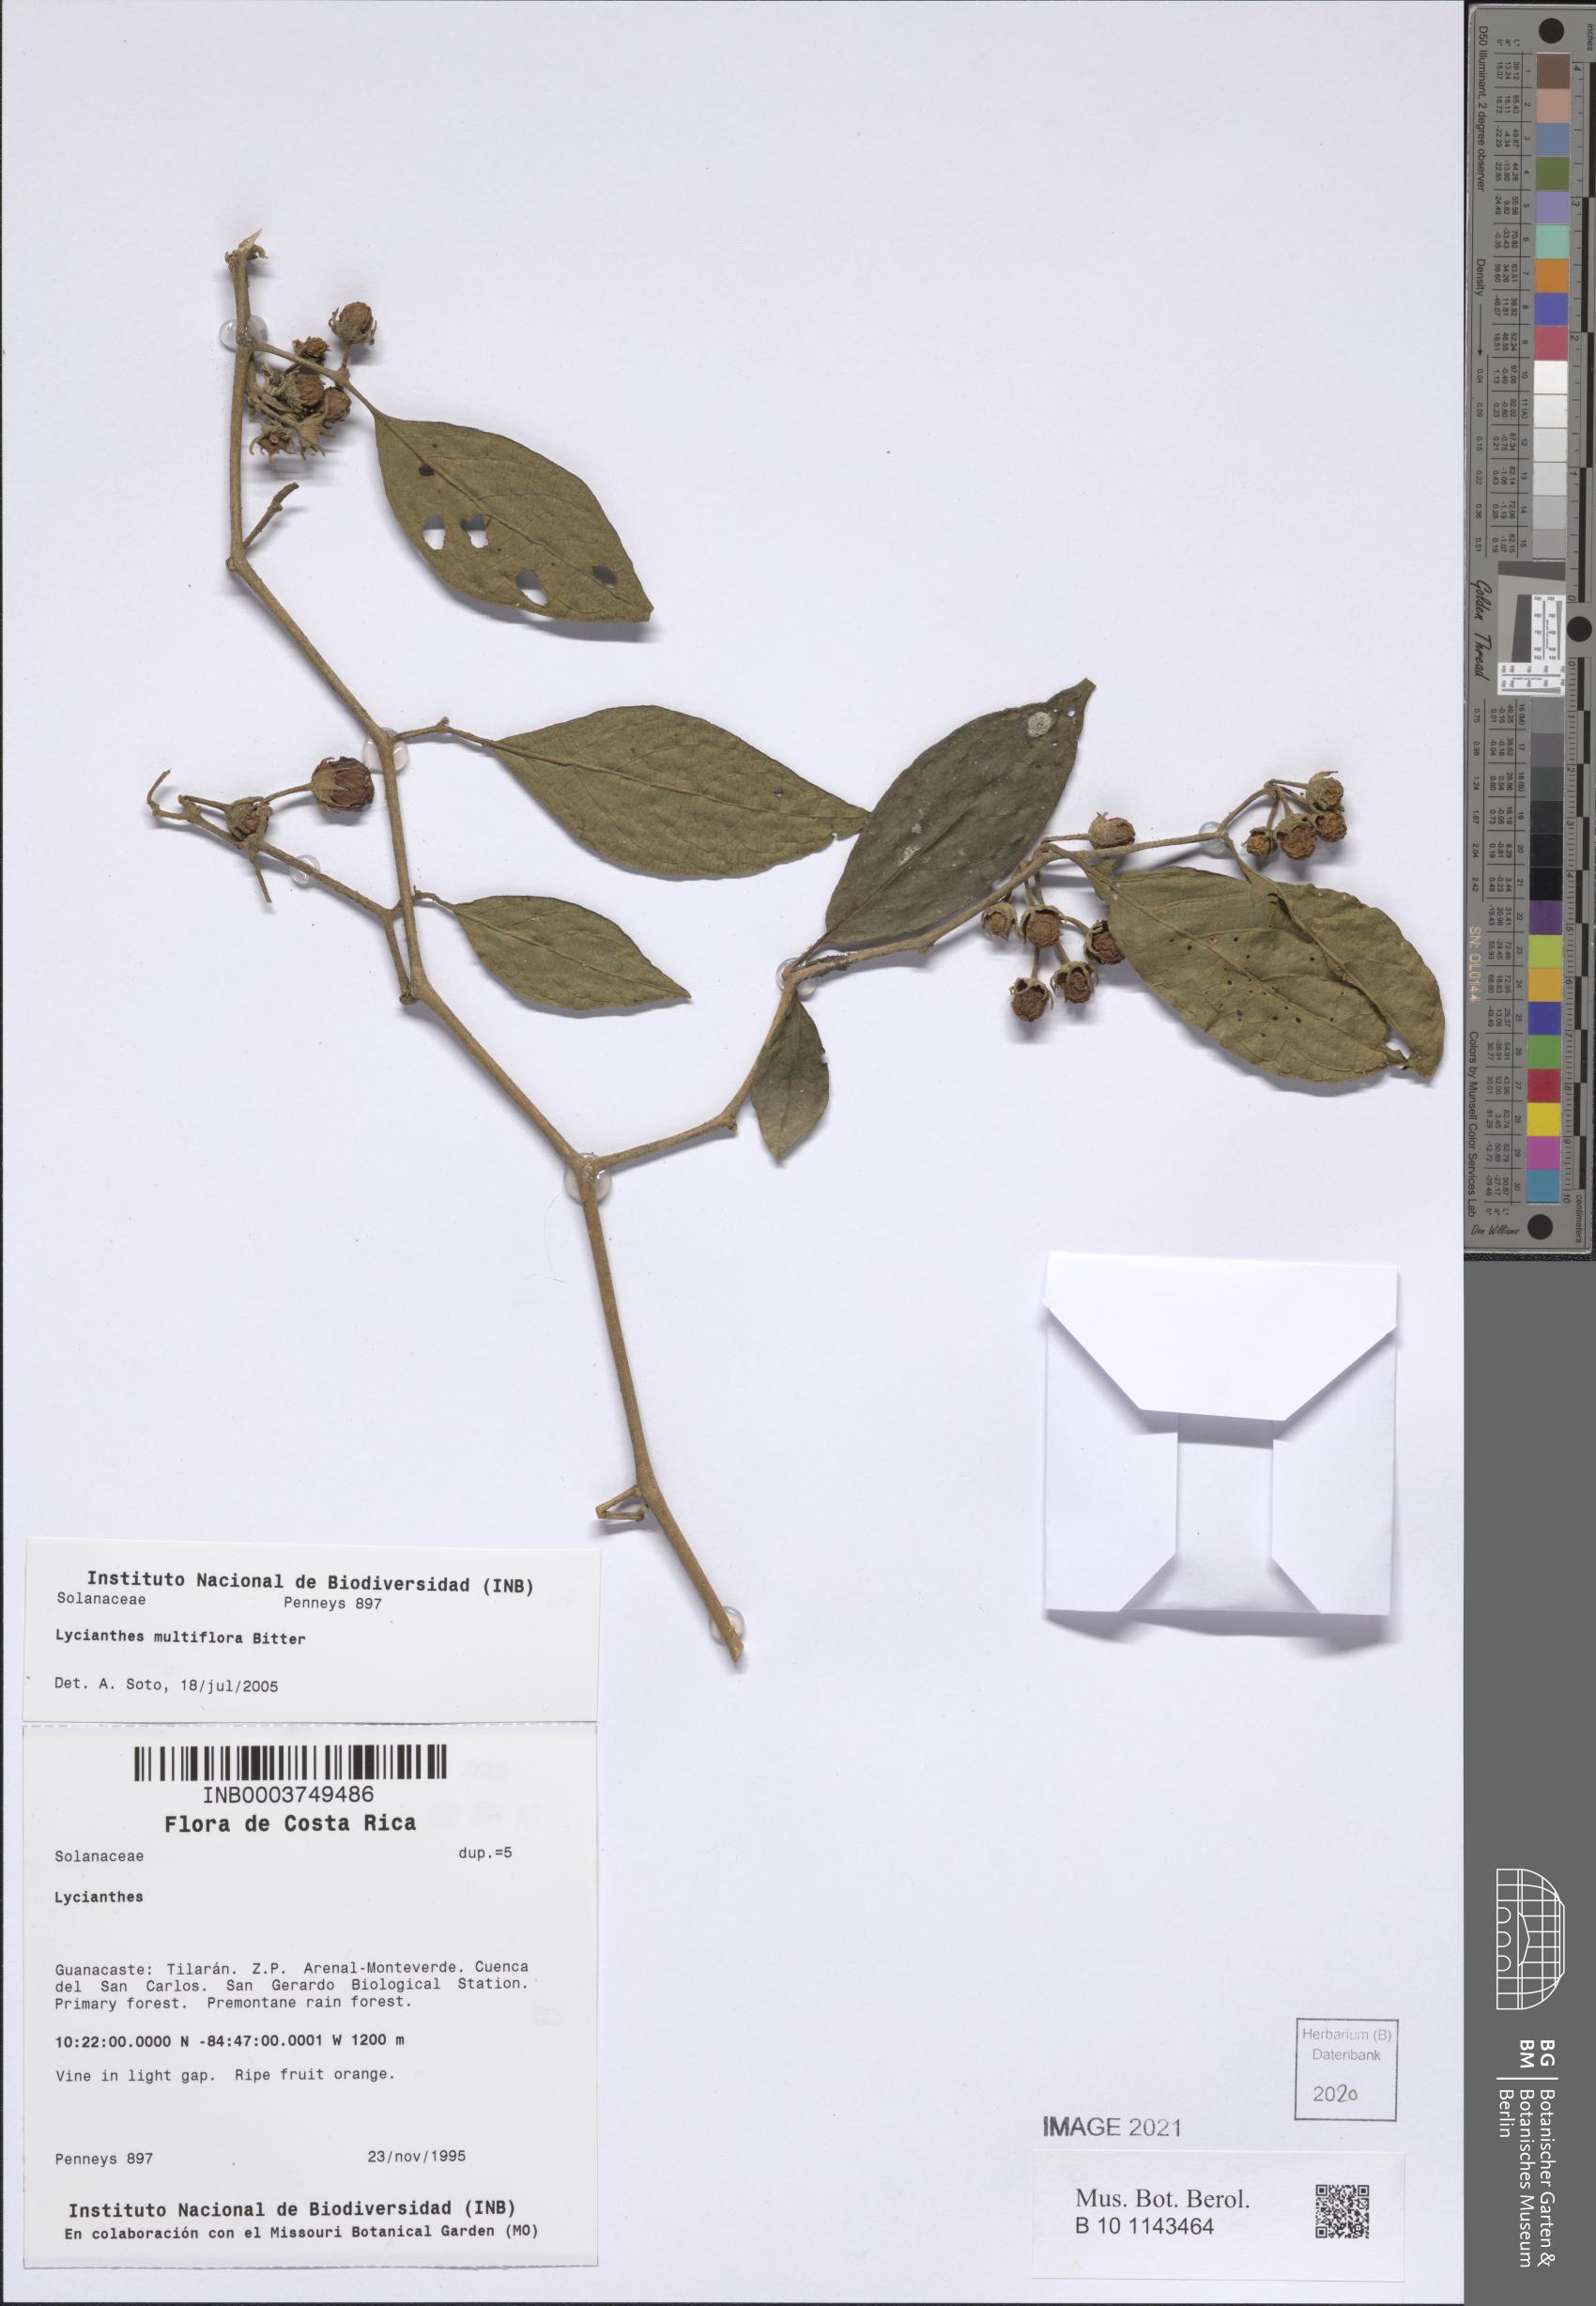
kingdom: Plantae
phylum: Tracheophyta
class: Magnoliopsida
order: Solanales
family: Solanaceae
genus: Lycianthes
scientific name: Lycianthes multiflora
